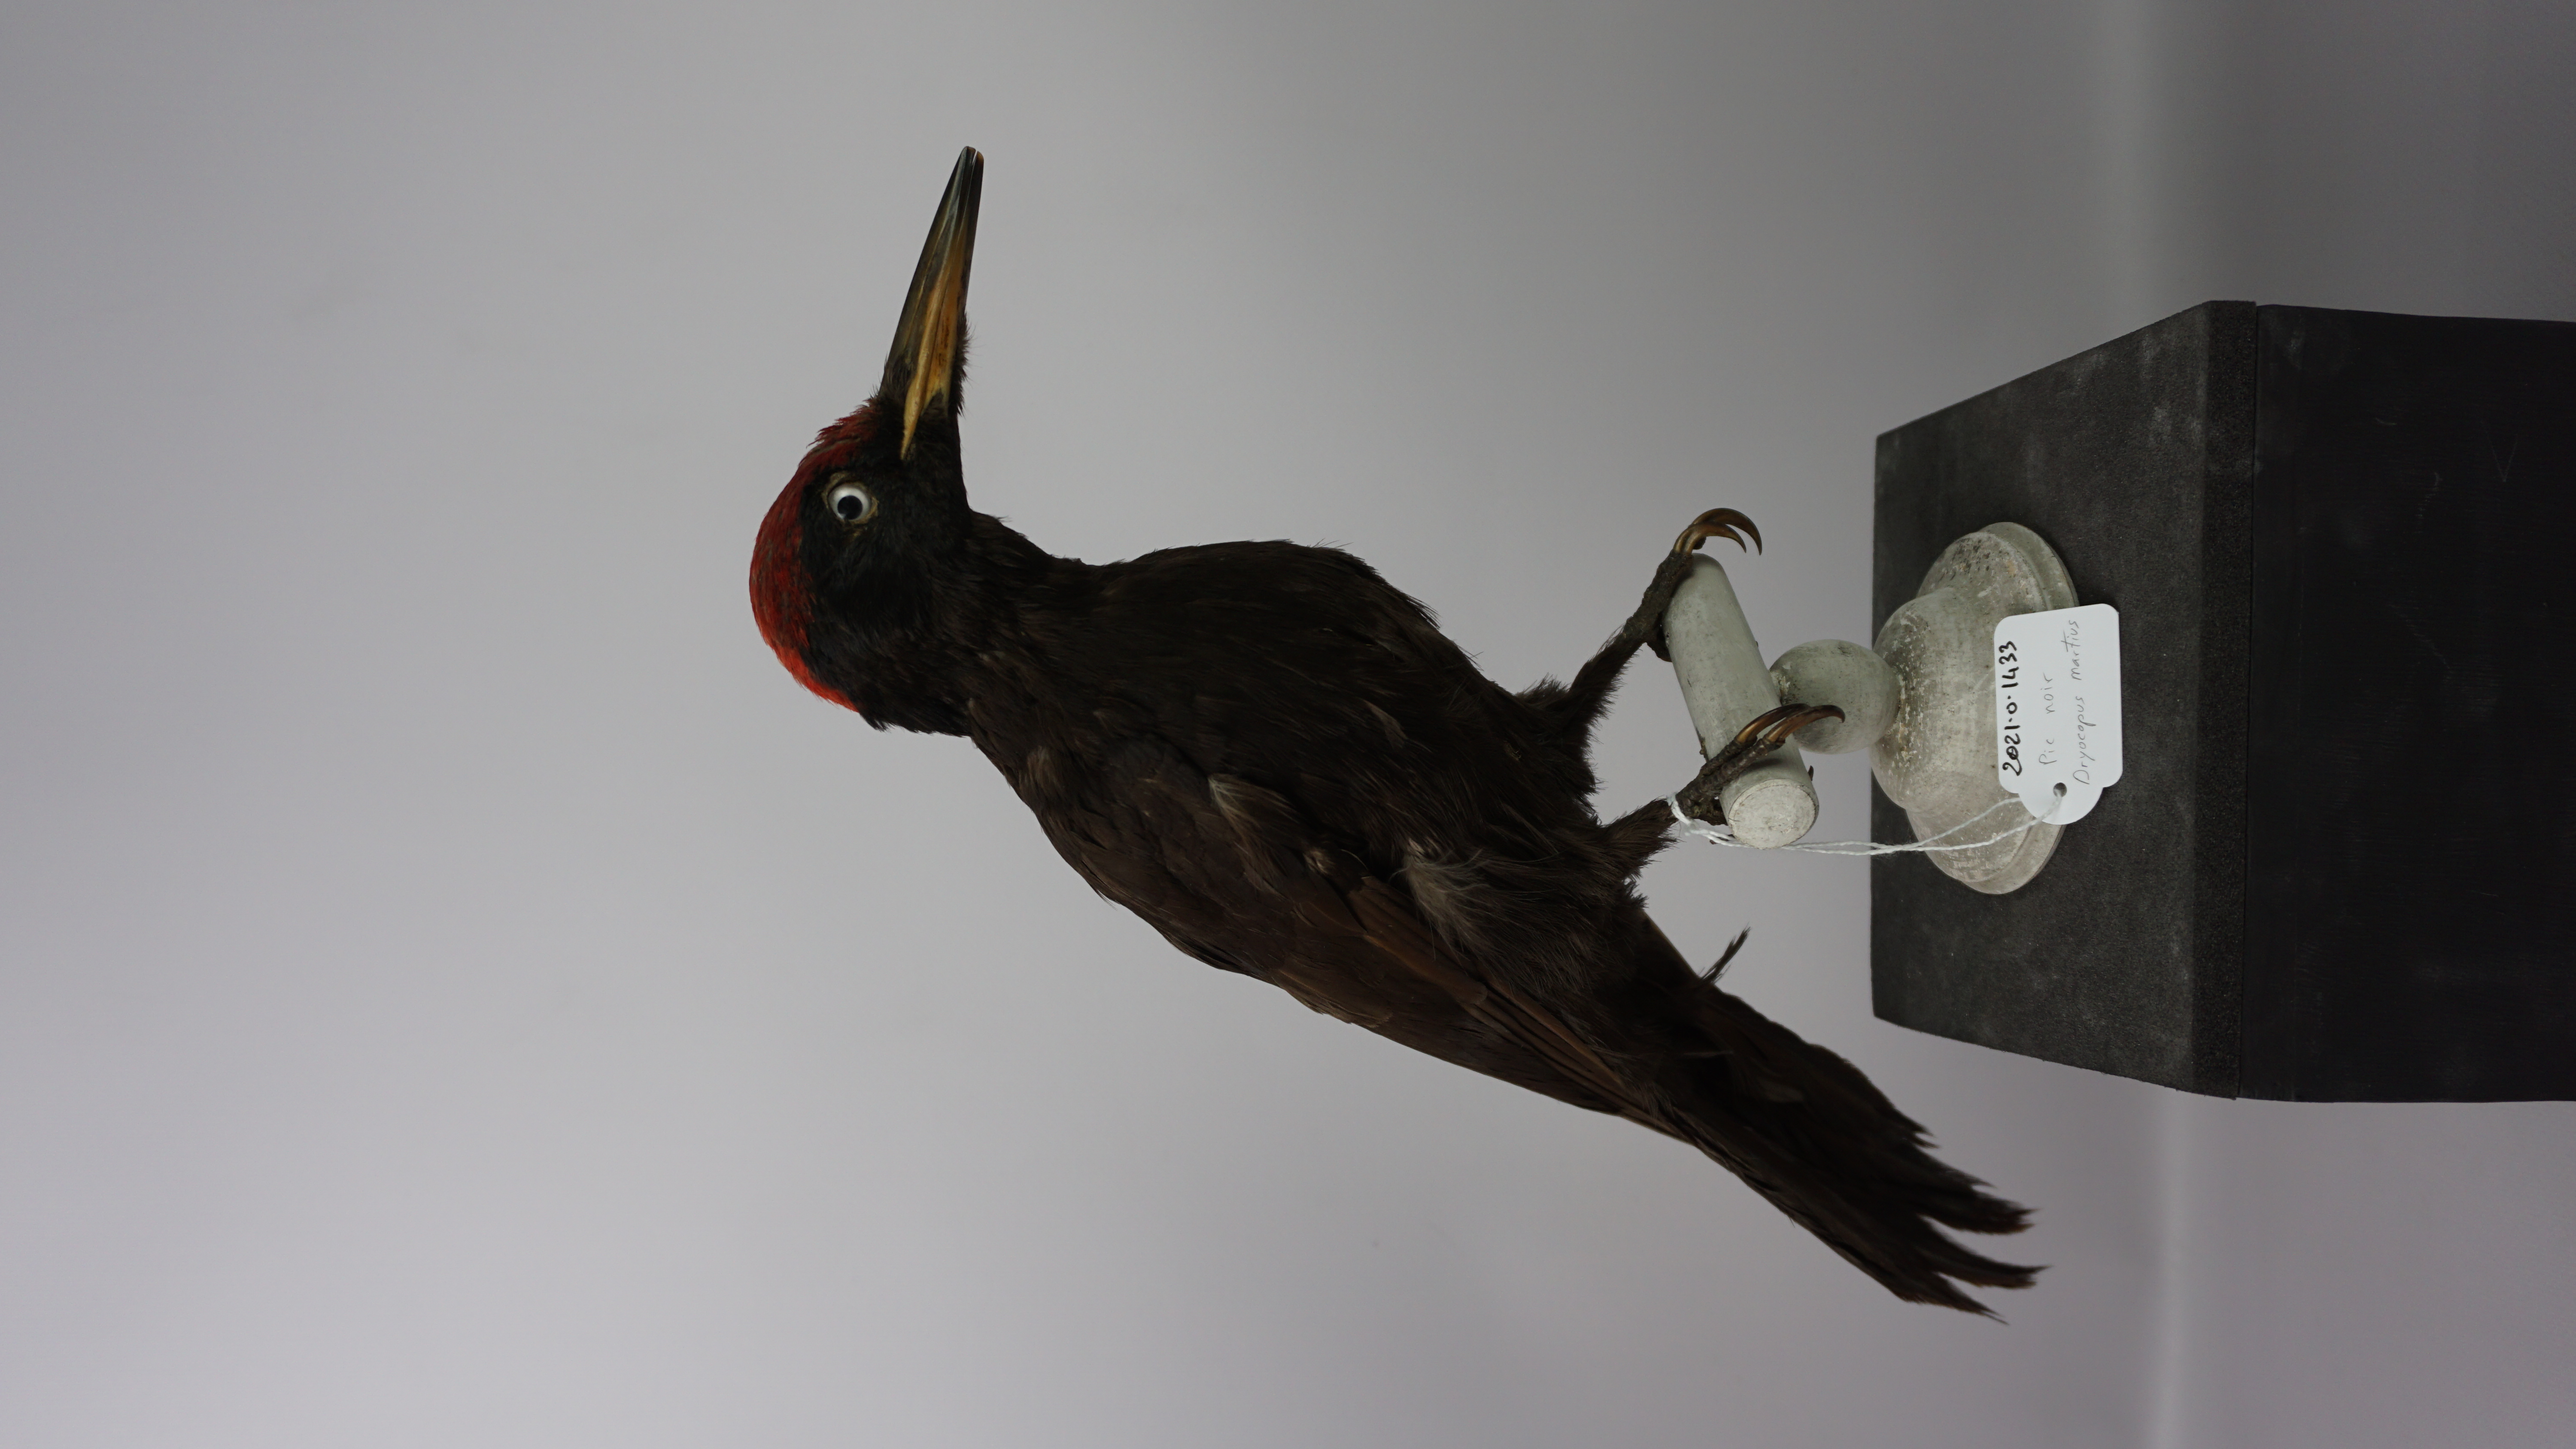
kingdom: Animalia
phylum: Chordata
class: Aves
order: Piciformes
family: Picidae
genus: Dryocopus
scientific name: Dryocopus martius
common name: Black woodpecker
